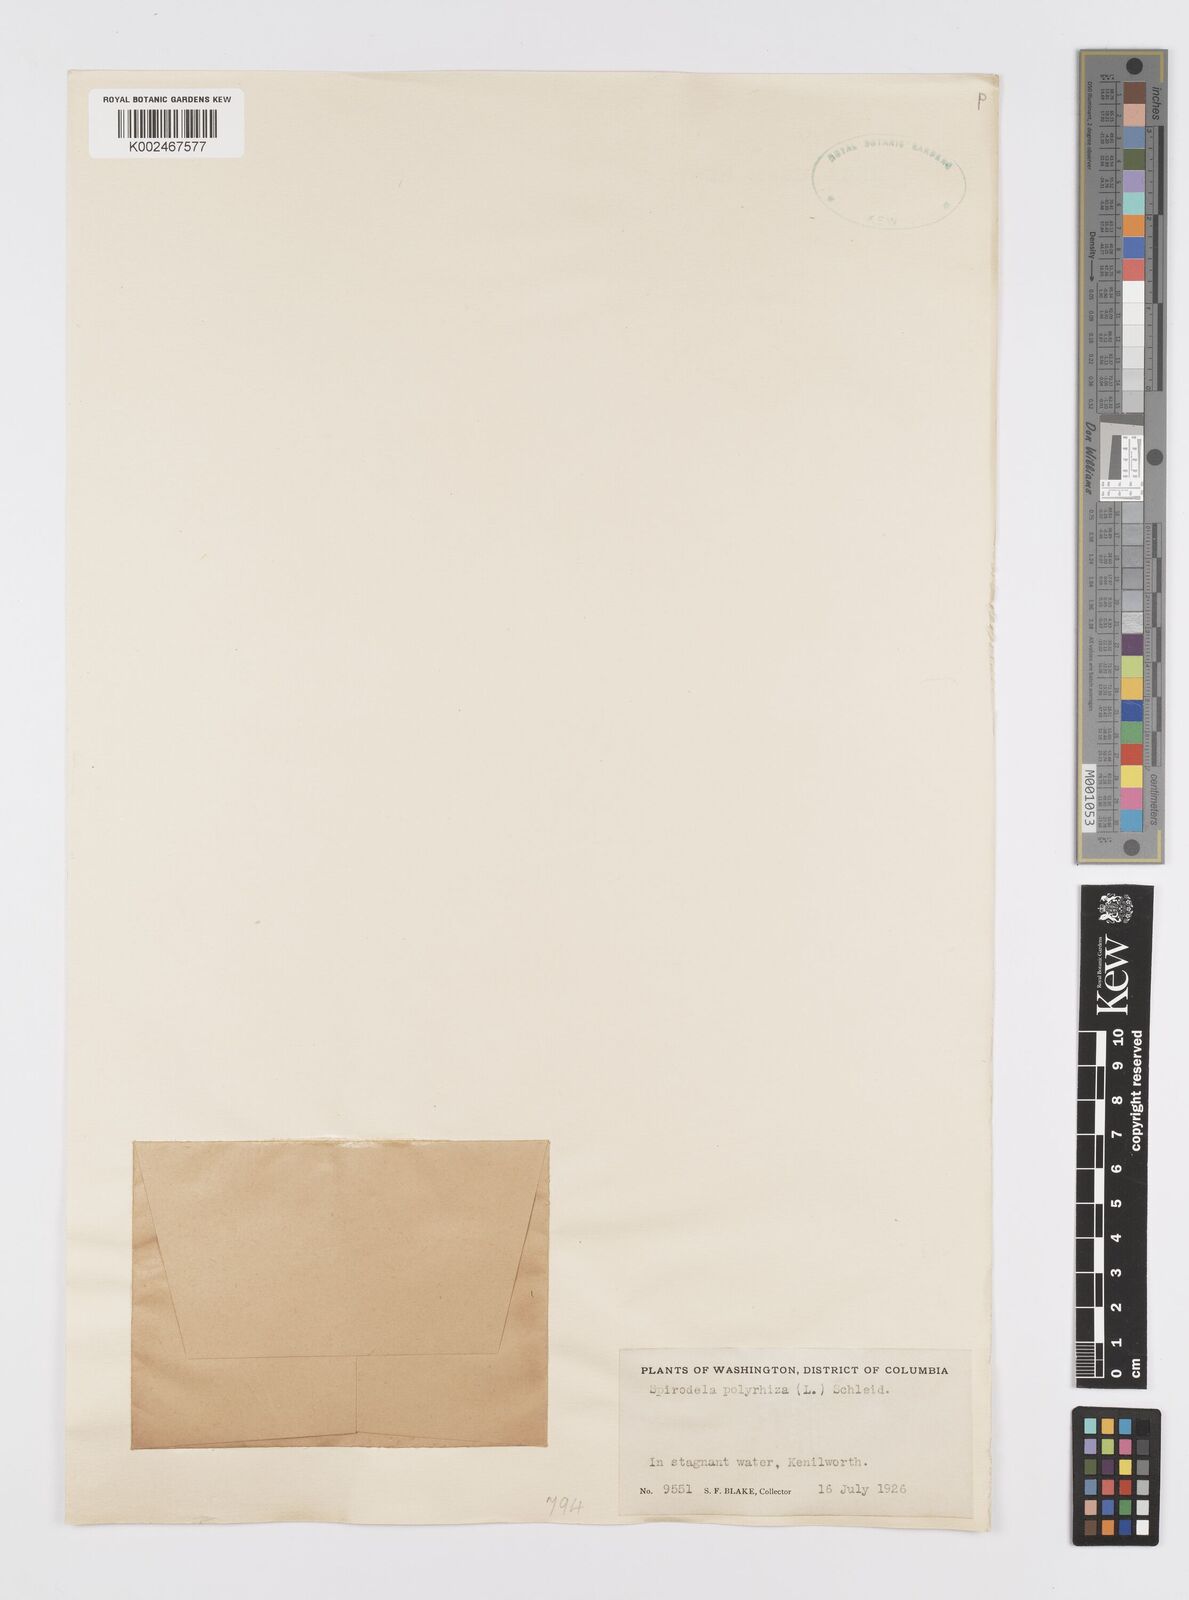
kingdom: Plantae
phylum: Tracheophyta
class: Liliopsida
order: Alismatales
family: Araceae
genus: Spirodela
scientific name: Spirodela polyrhiza
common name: Great duckweed
